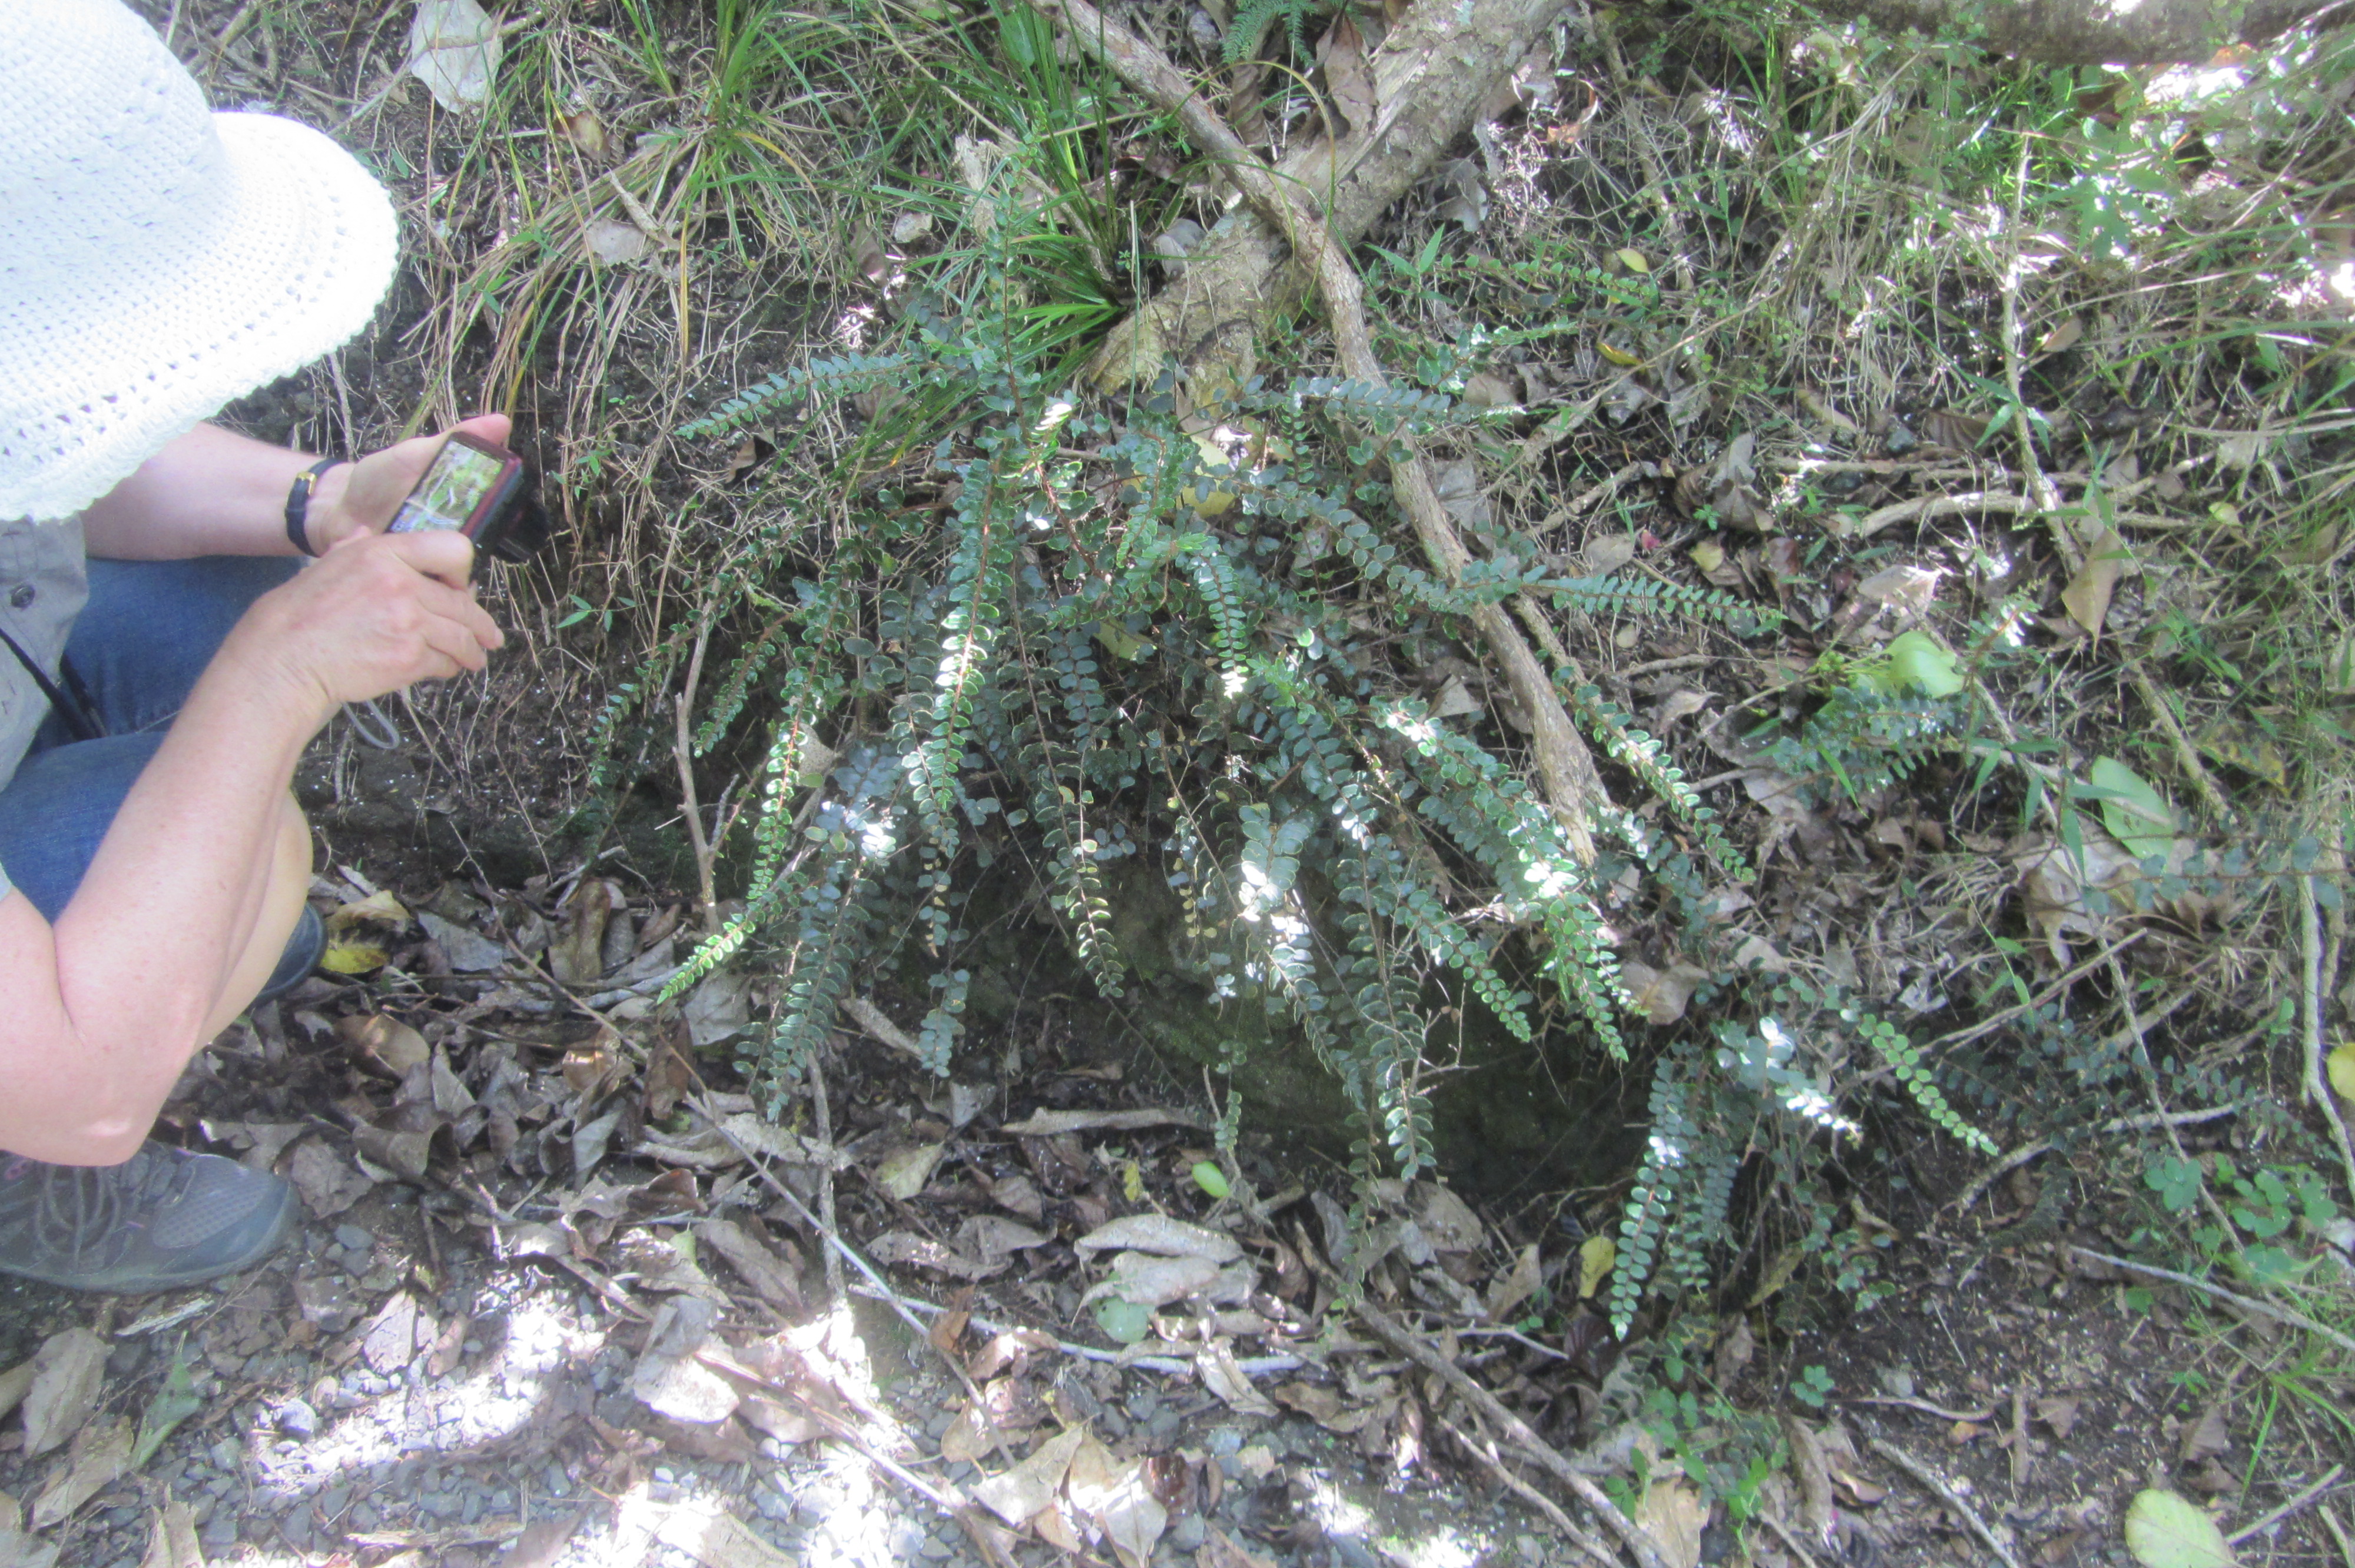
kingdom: Plantae
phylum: Tracheophyta
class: Polypodiopsida
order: Polypodiales
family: Pteridaceae
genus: Pellaea
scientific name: Pellaea rotundifolia
